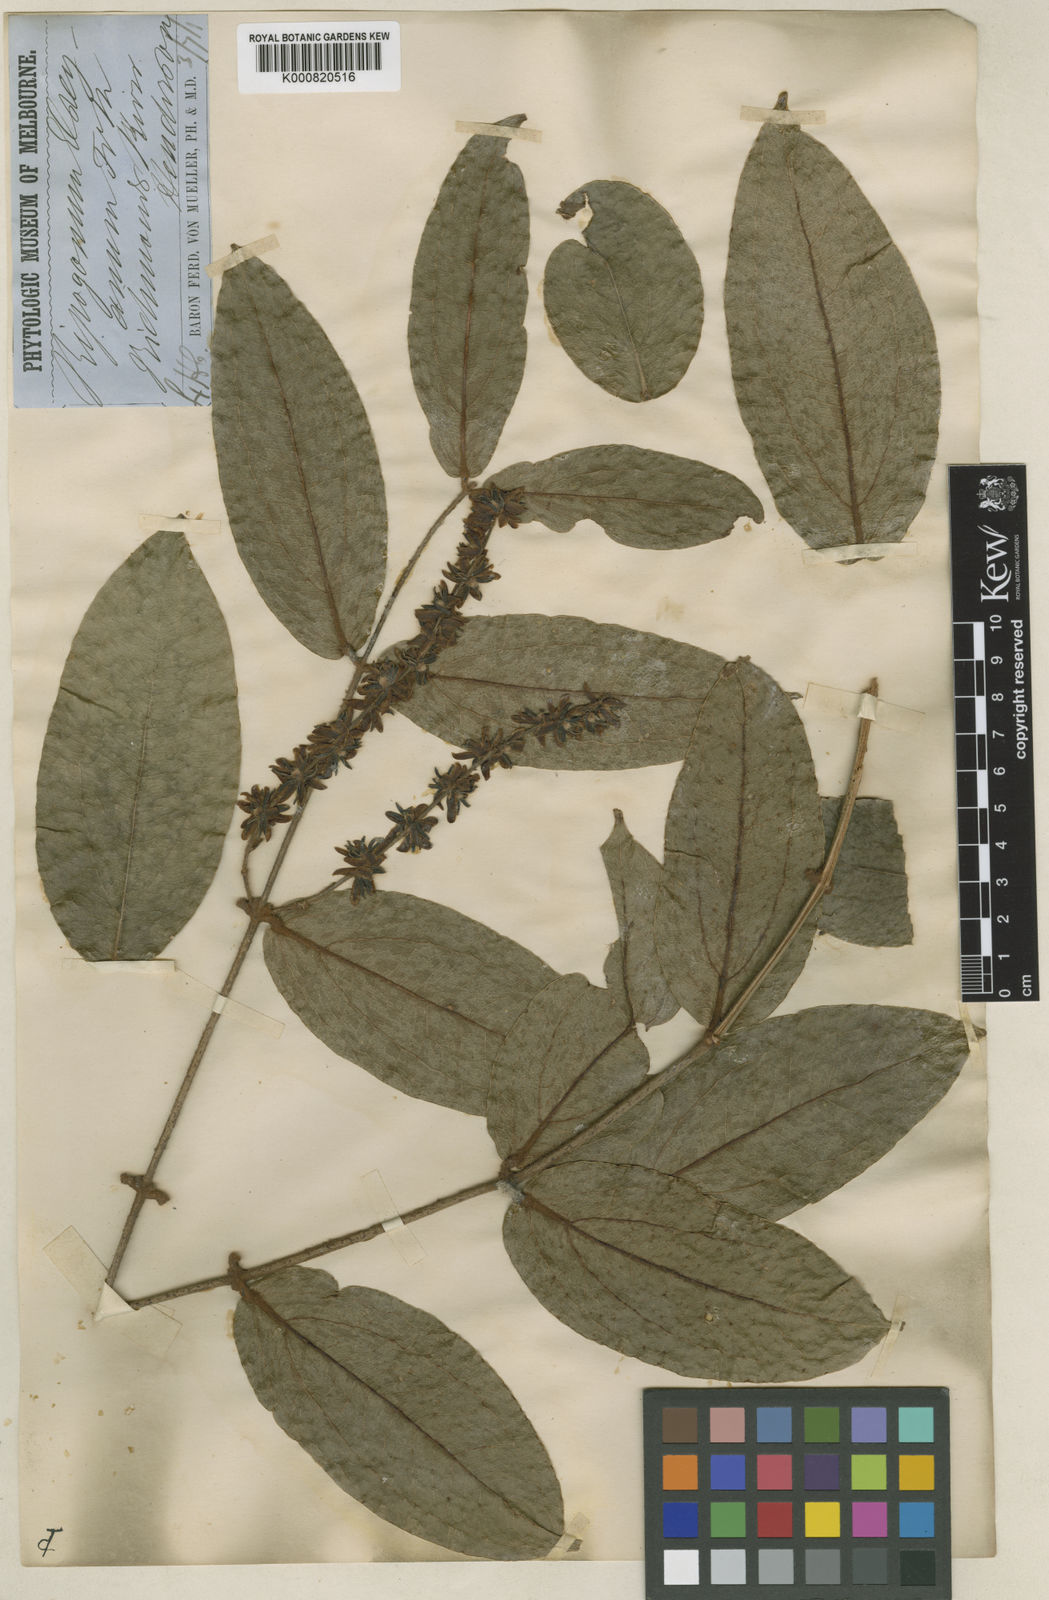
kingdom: Plantae
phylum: Tracheophyta
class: Liliopsida
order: Liliales
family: Ripogonaceae
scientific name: Ripogonaceae
